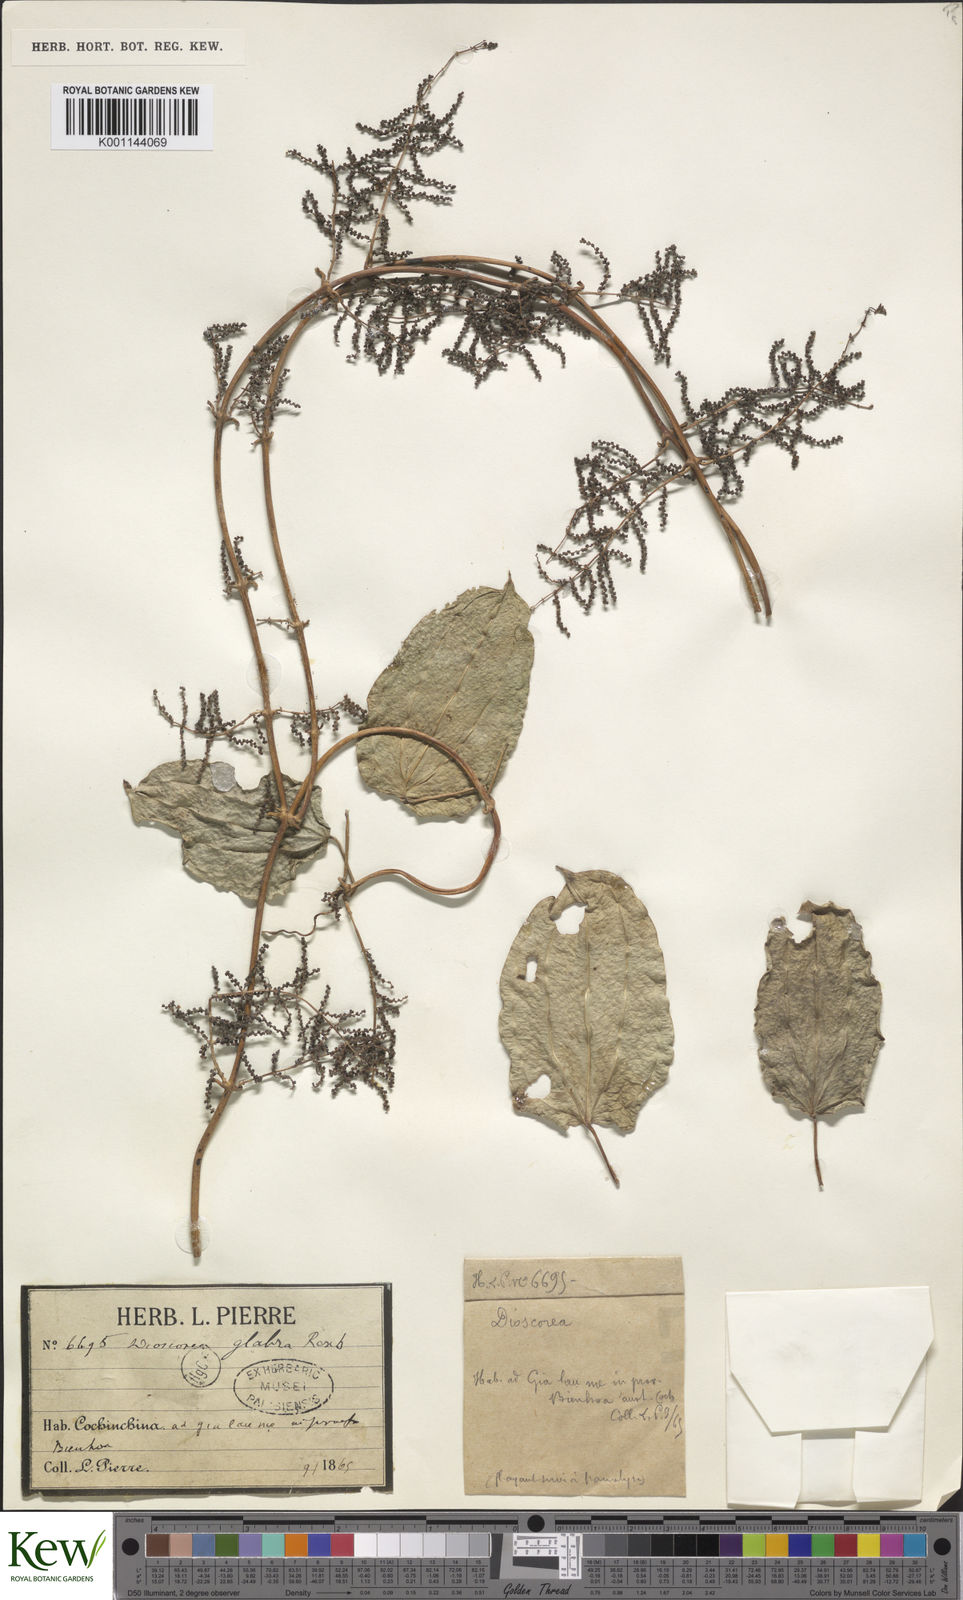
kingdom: Plantae
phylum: Tracheophyta
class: Liliopsida
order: Dioscoreales
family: Dioscoreaceae
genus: Dioscorea
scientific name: Dioscorea glabra
